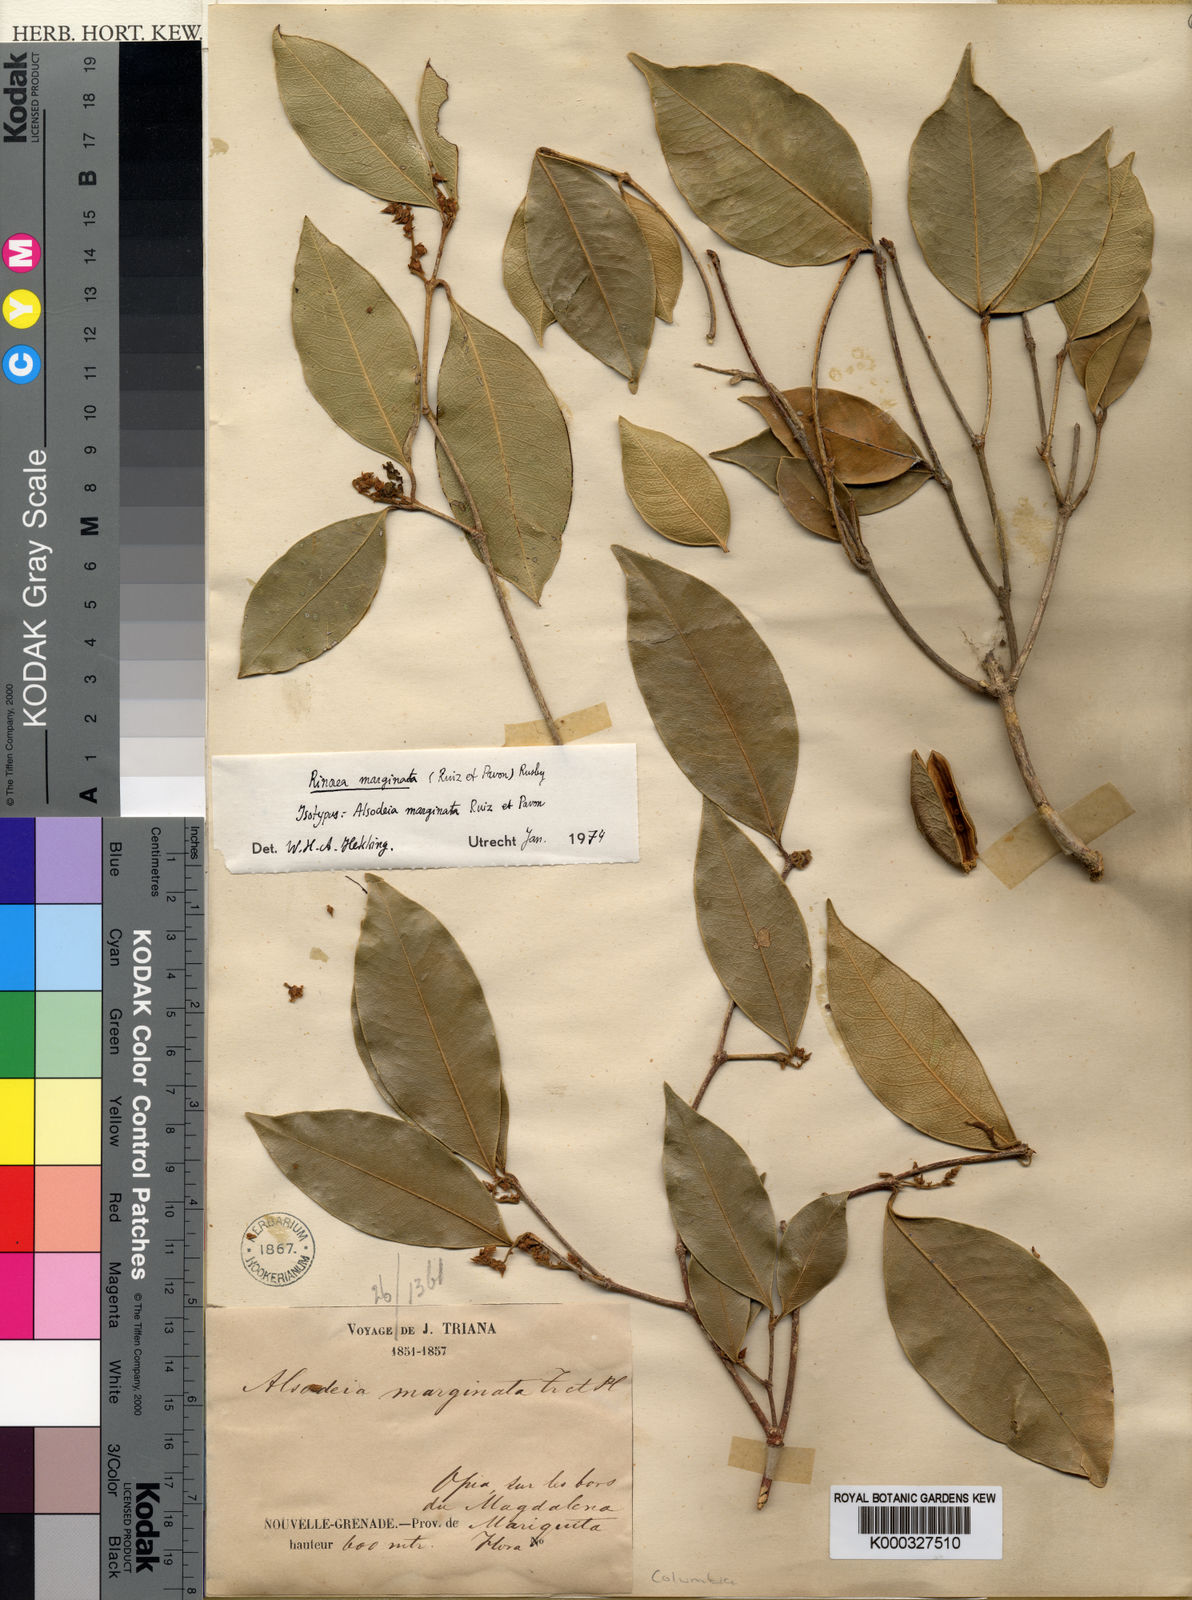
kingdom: Plantae
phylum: Tracheophyta
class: Magnoliopsida
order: Malpighiales
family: Violaceae
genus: Rinorea
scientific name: Rinorea marginata
